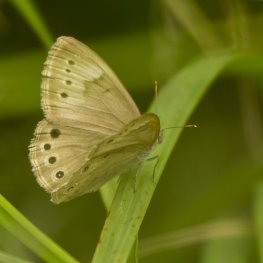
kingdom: Animalia
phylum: Arthropoda
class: Insecta
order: Lepidoptera
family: Nymphalidae
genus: Lethe
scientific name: Lethe eurydice
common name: Eyed Brown
